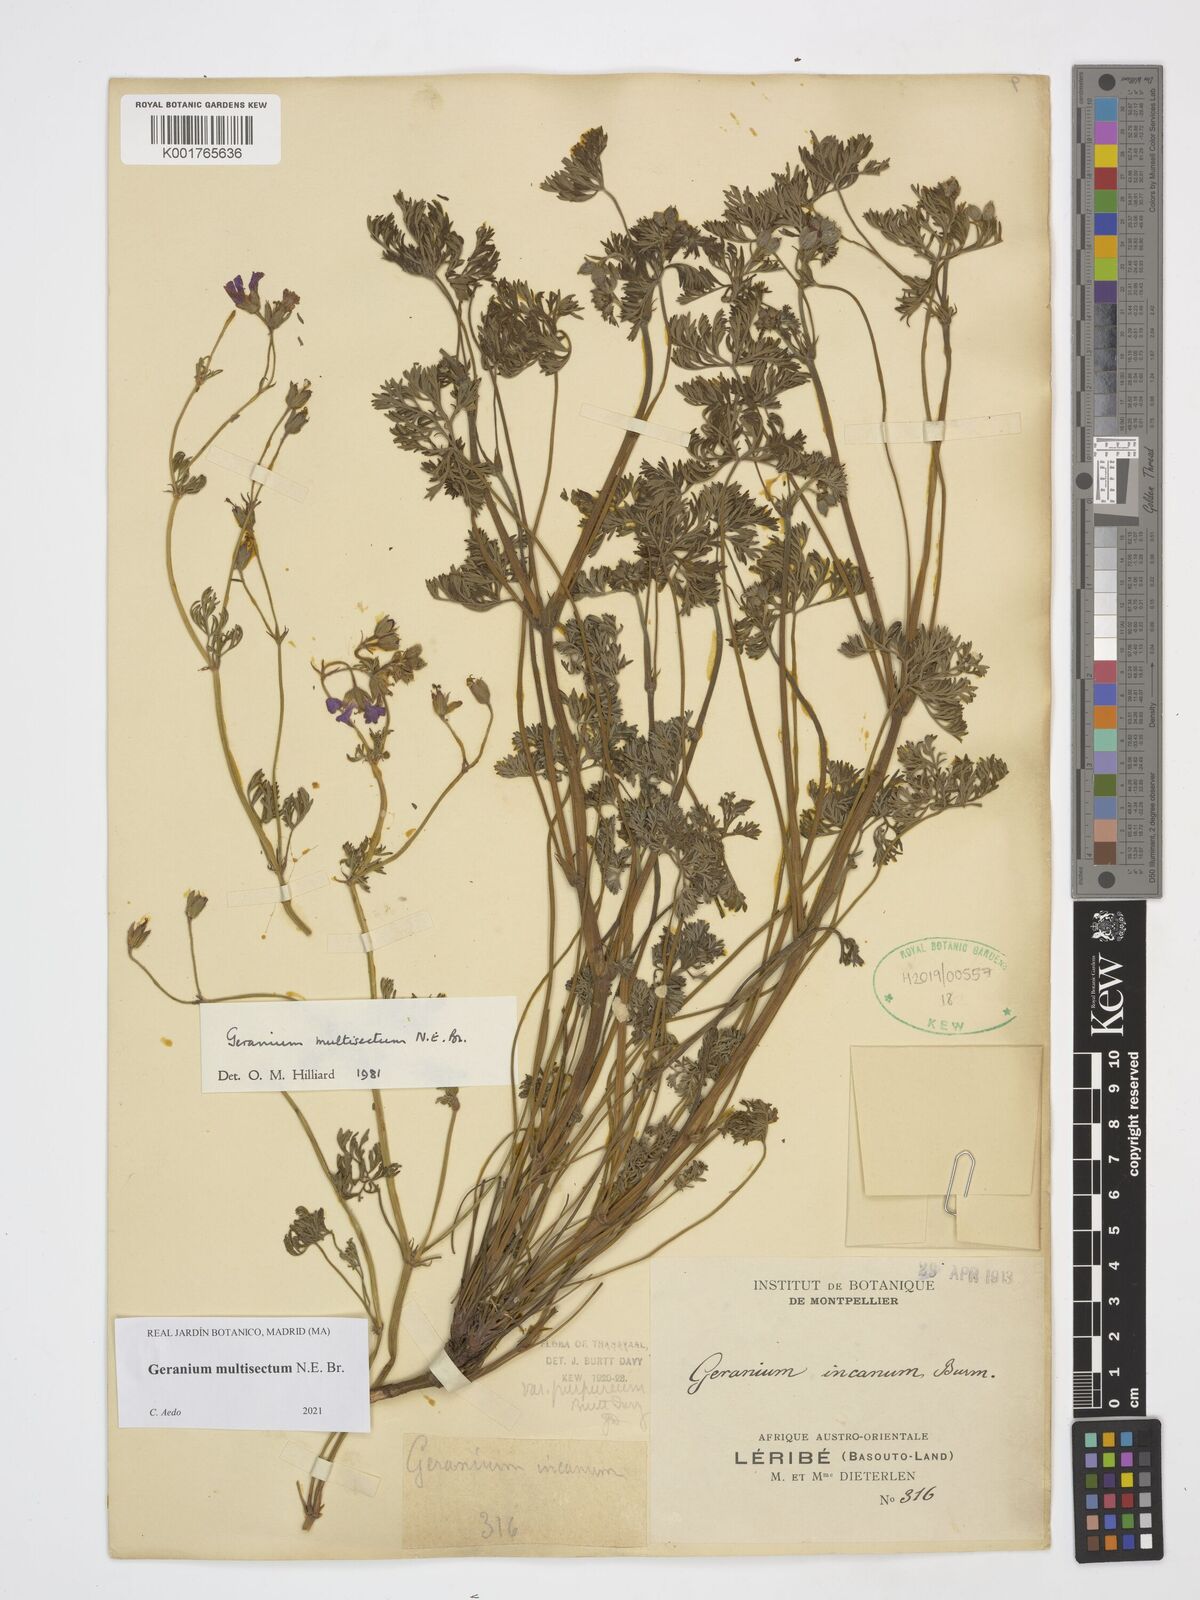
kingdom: Plantae
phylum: Tracheophyta
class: Magnoliopsida
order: Geraniales
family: Geraniaceae
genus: Geranium
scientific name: Geranium multisectum
